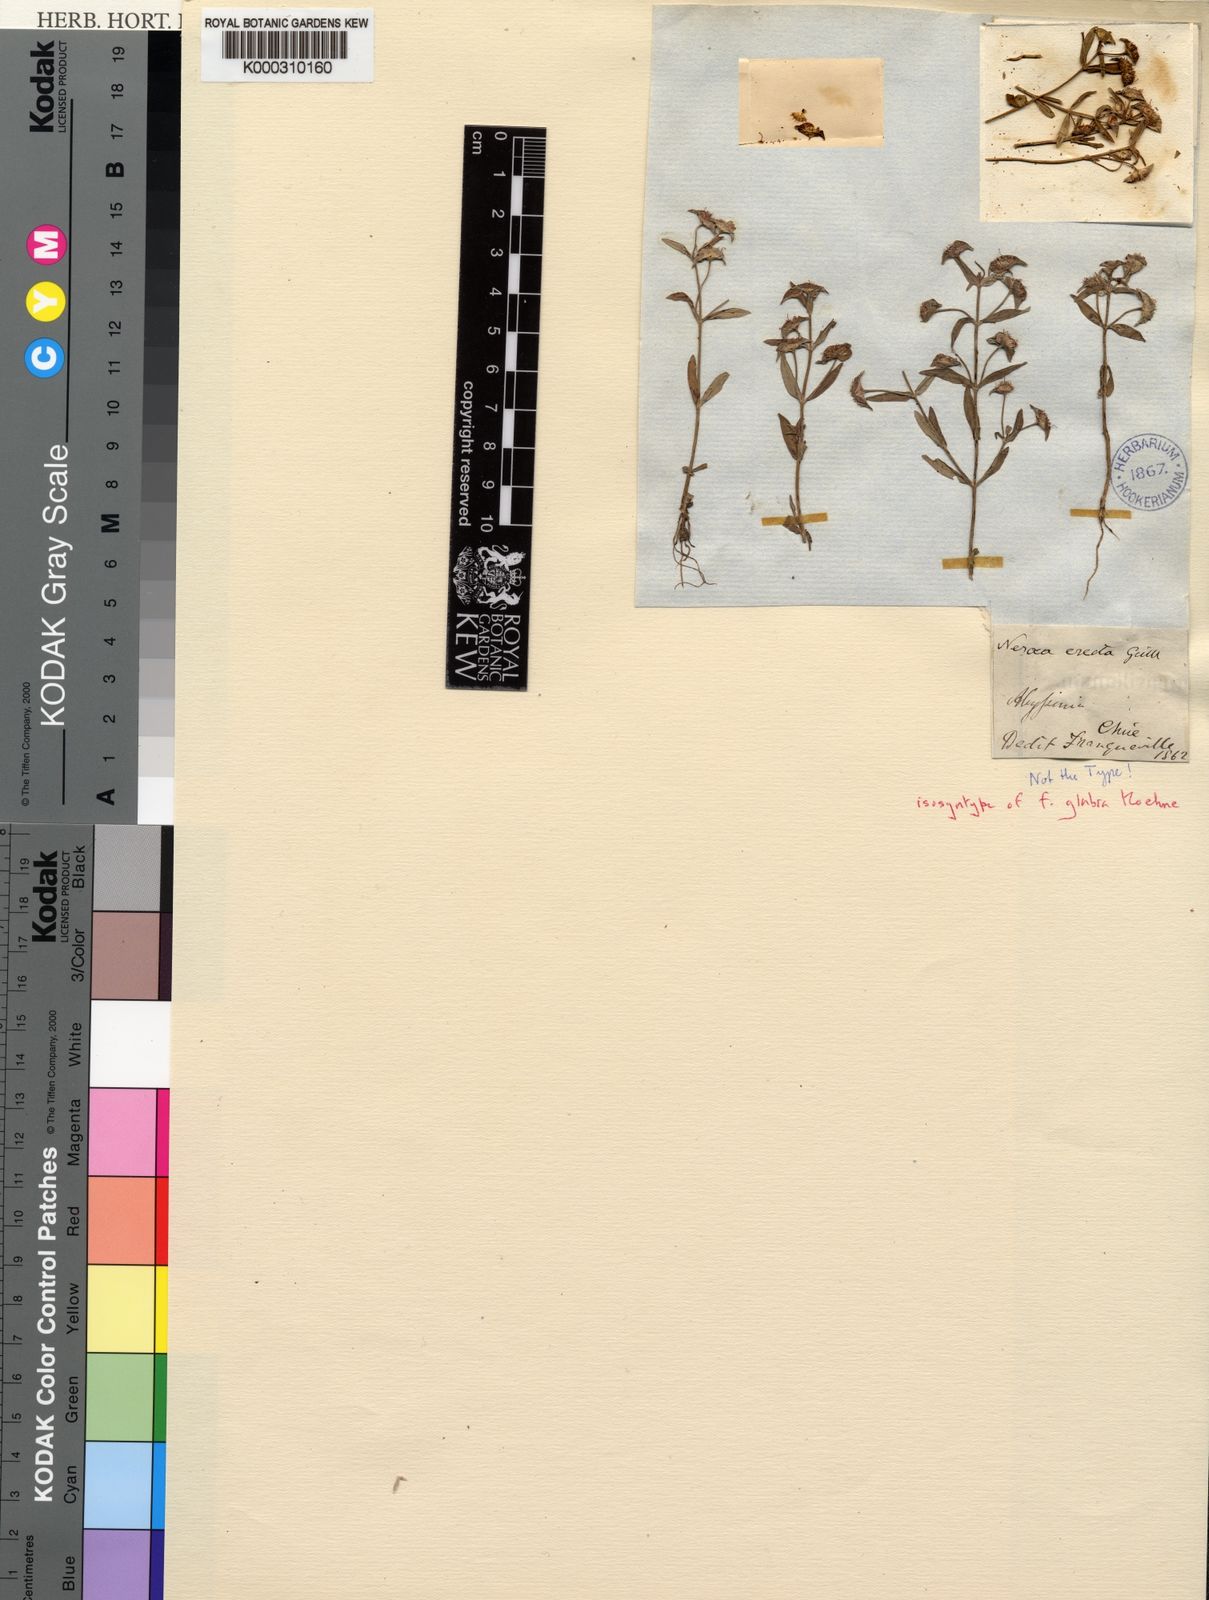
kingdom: Plantae
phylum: Tracheophyta
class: Magnoliopsida
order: Myrtales
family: Lythraceae
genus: Ammannia
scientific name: Ammannia erecta
